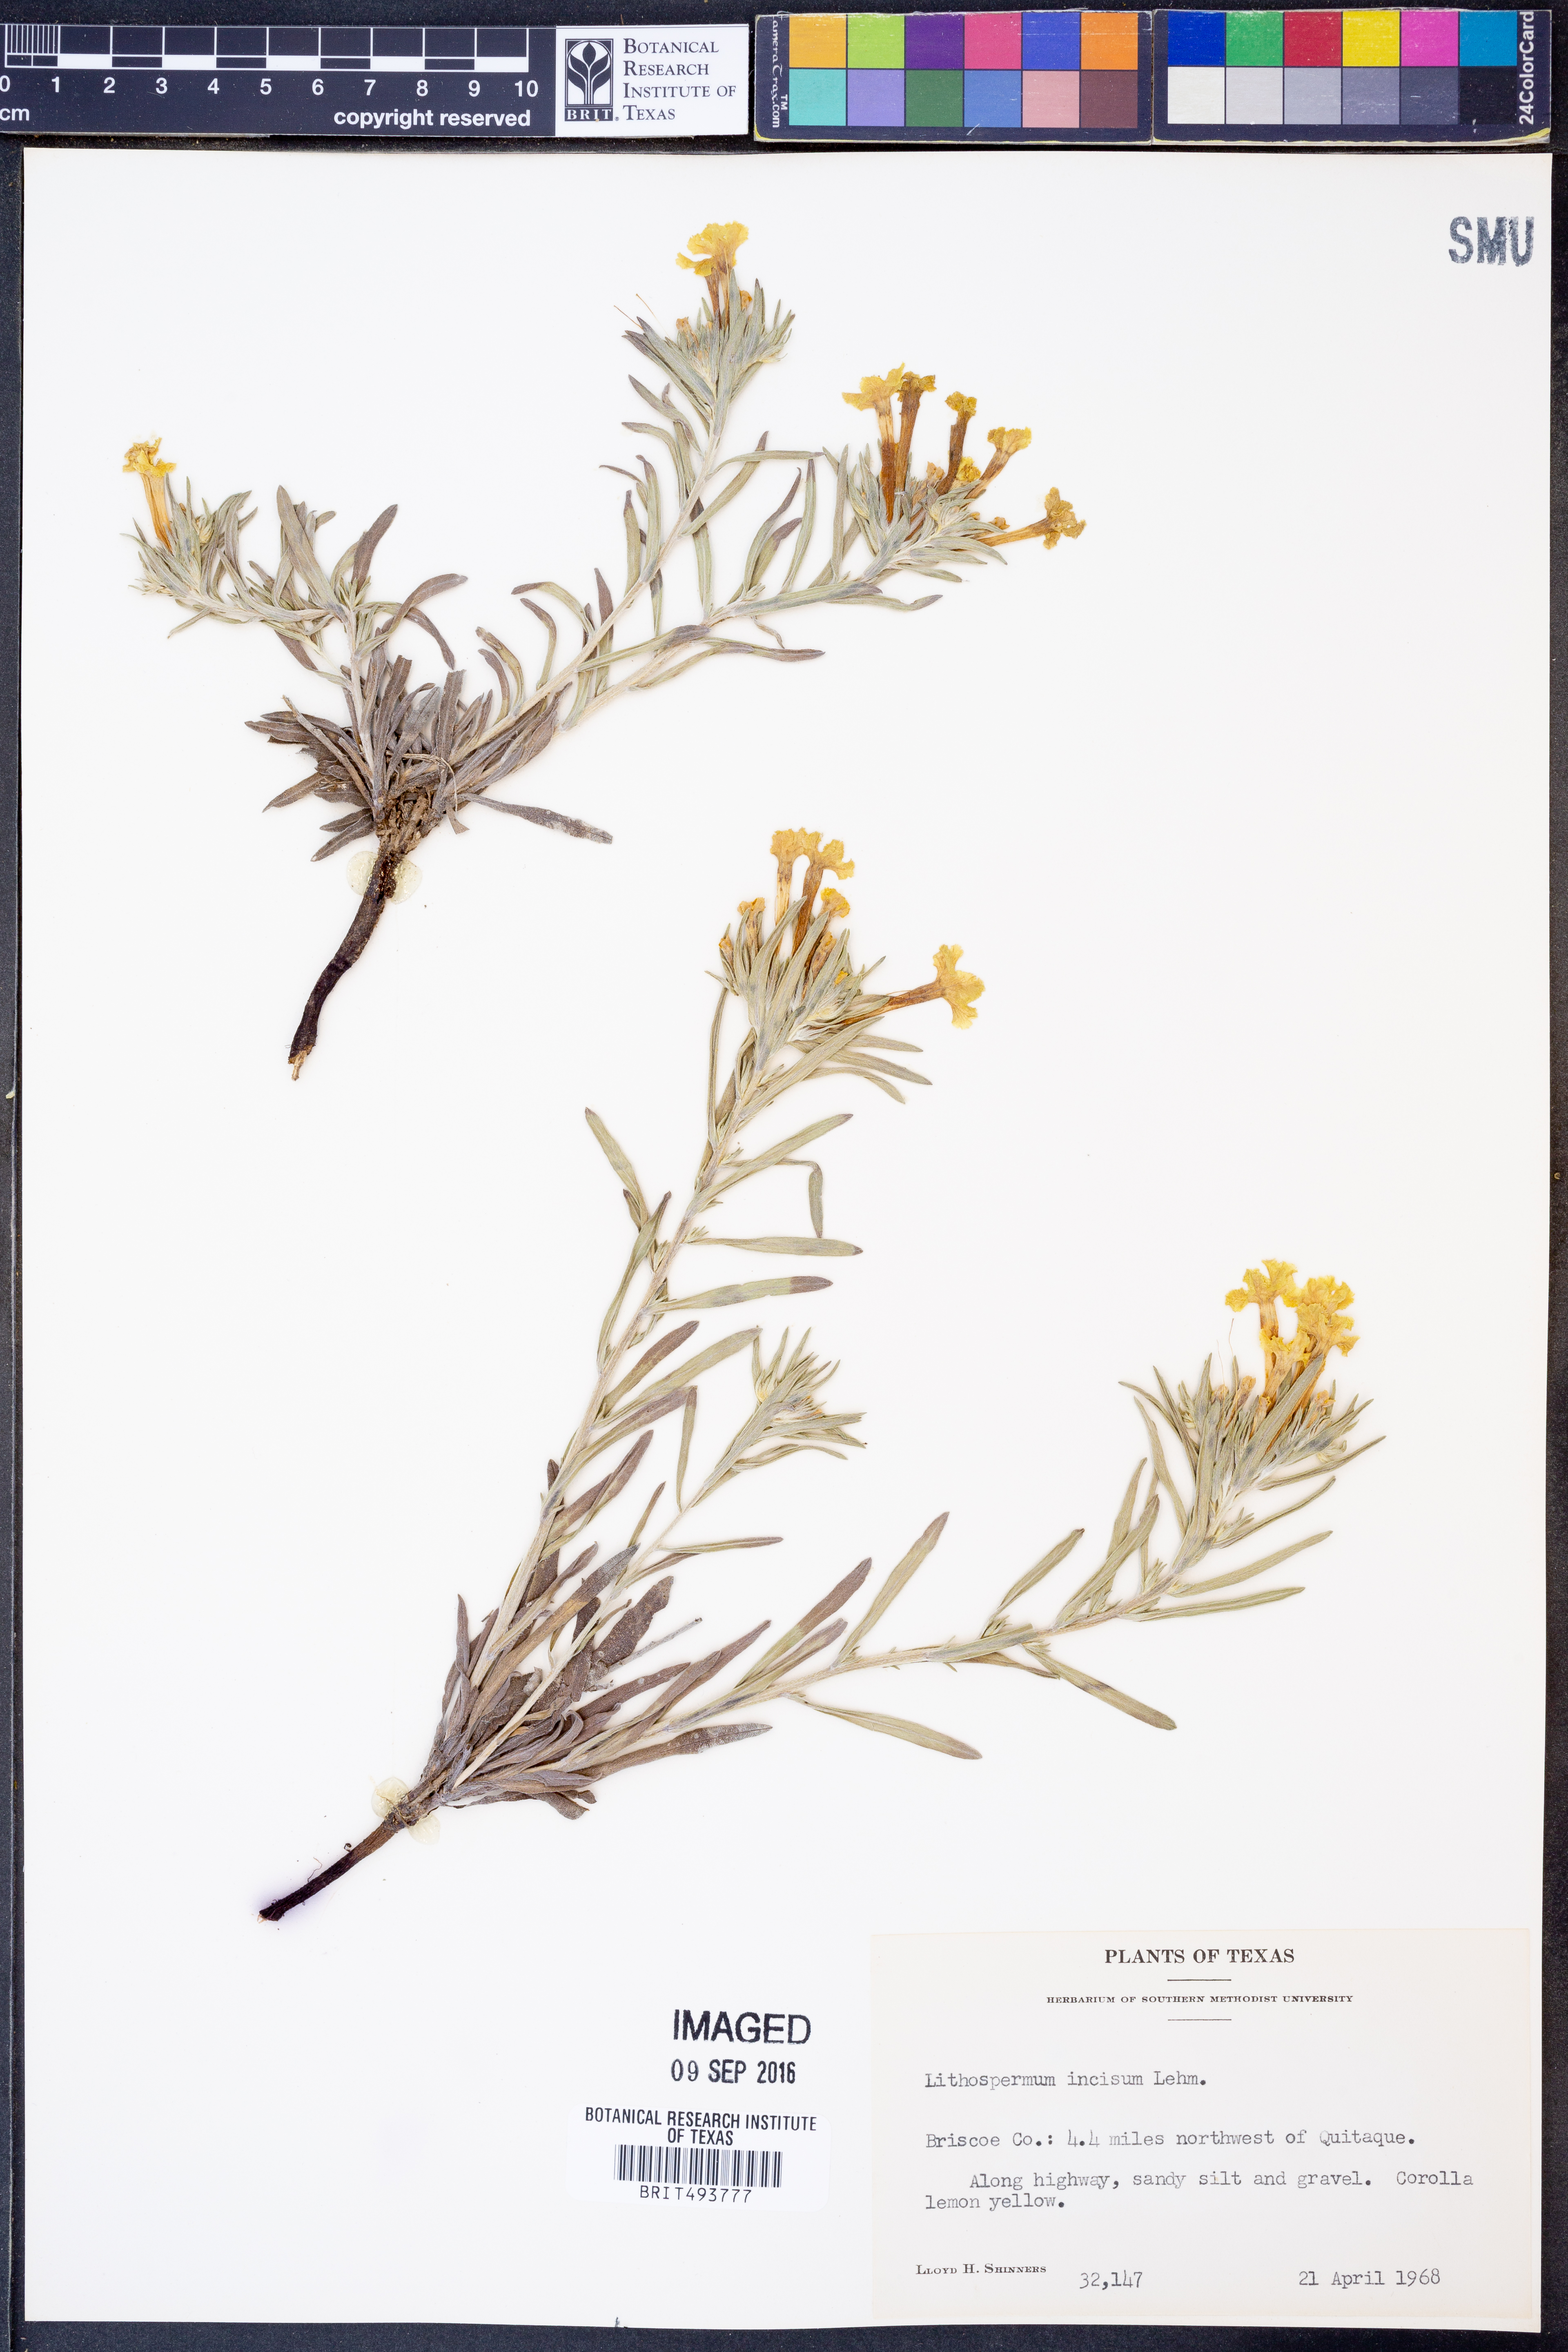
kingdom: Plantae
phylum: Tracheophyta
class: Magnoliopsida
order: Boraginales
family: Boraginaceae
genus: Lithospermum
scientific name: Lithospermum incisum
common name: Fringed gromwell
